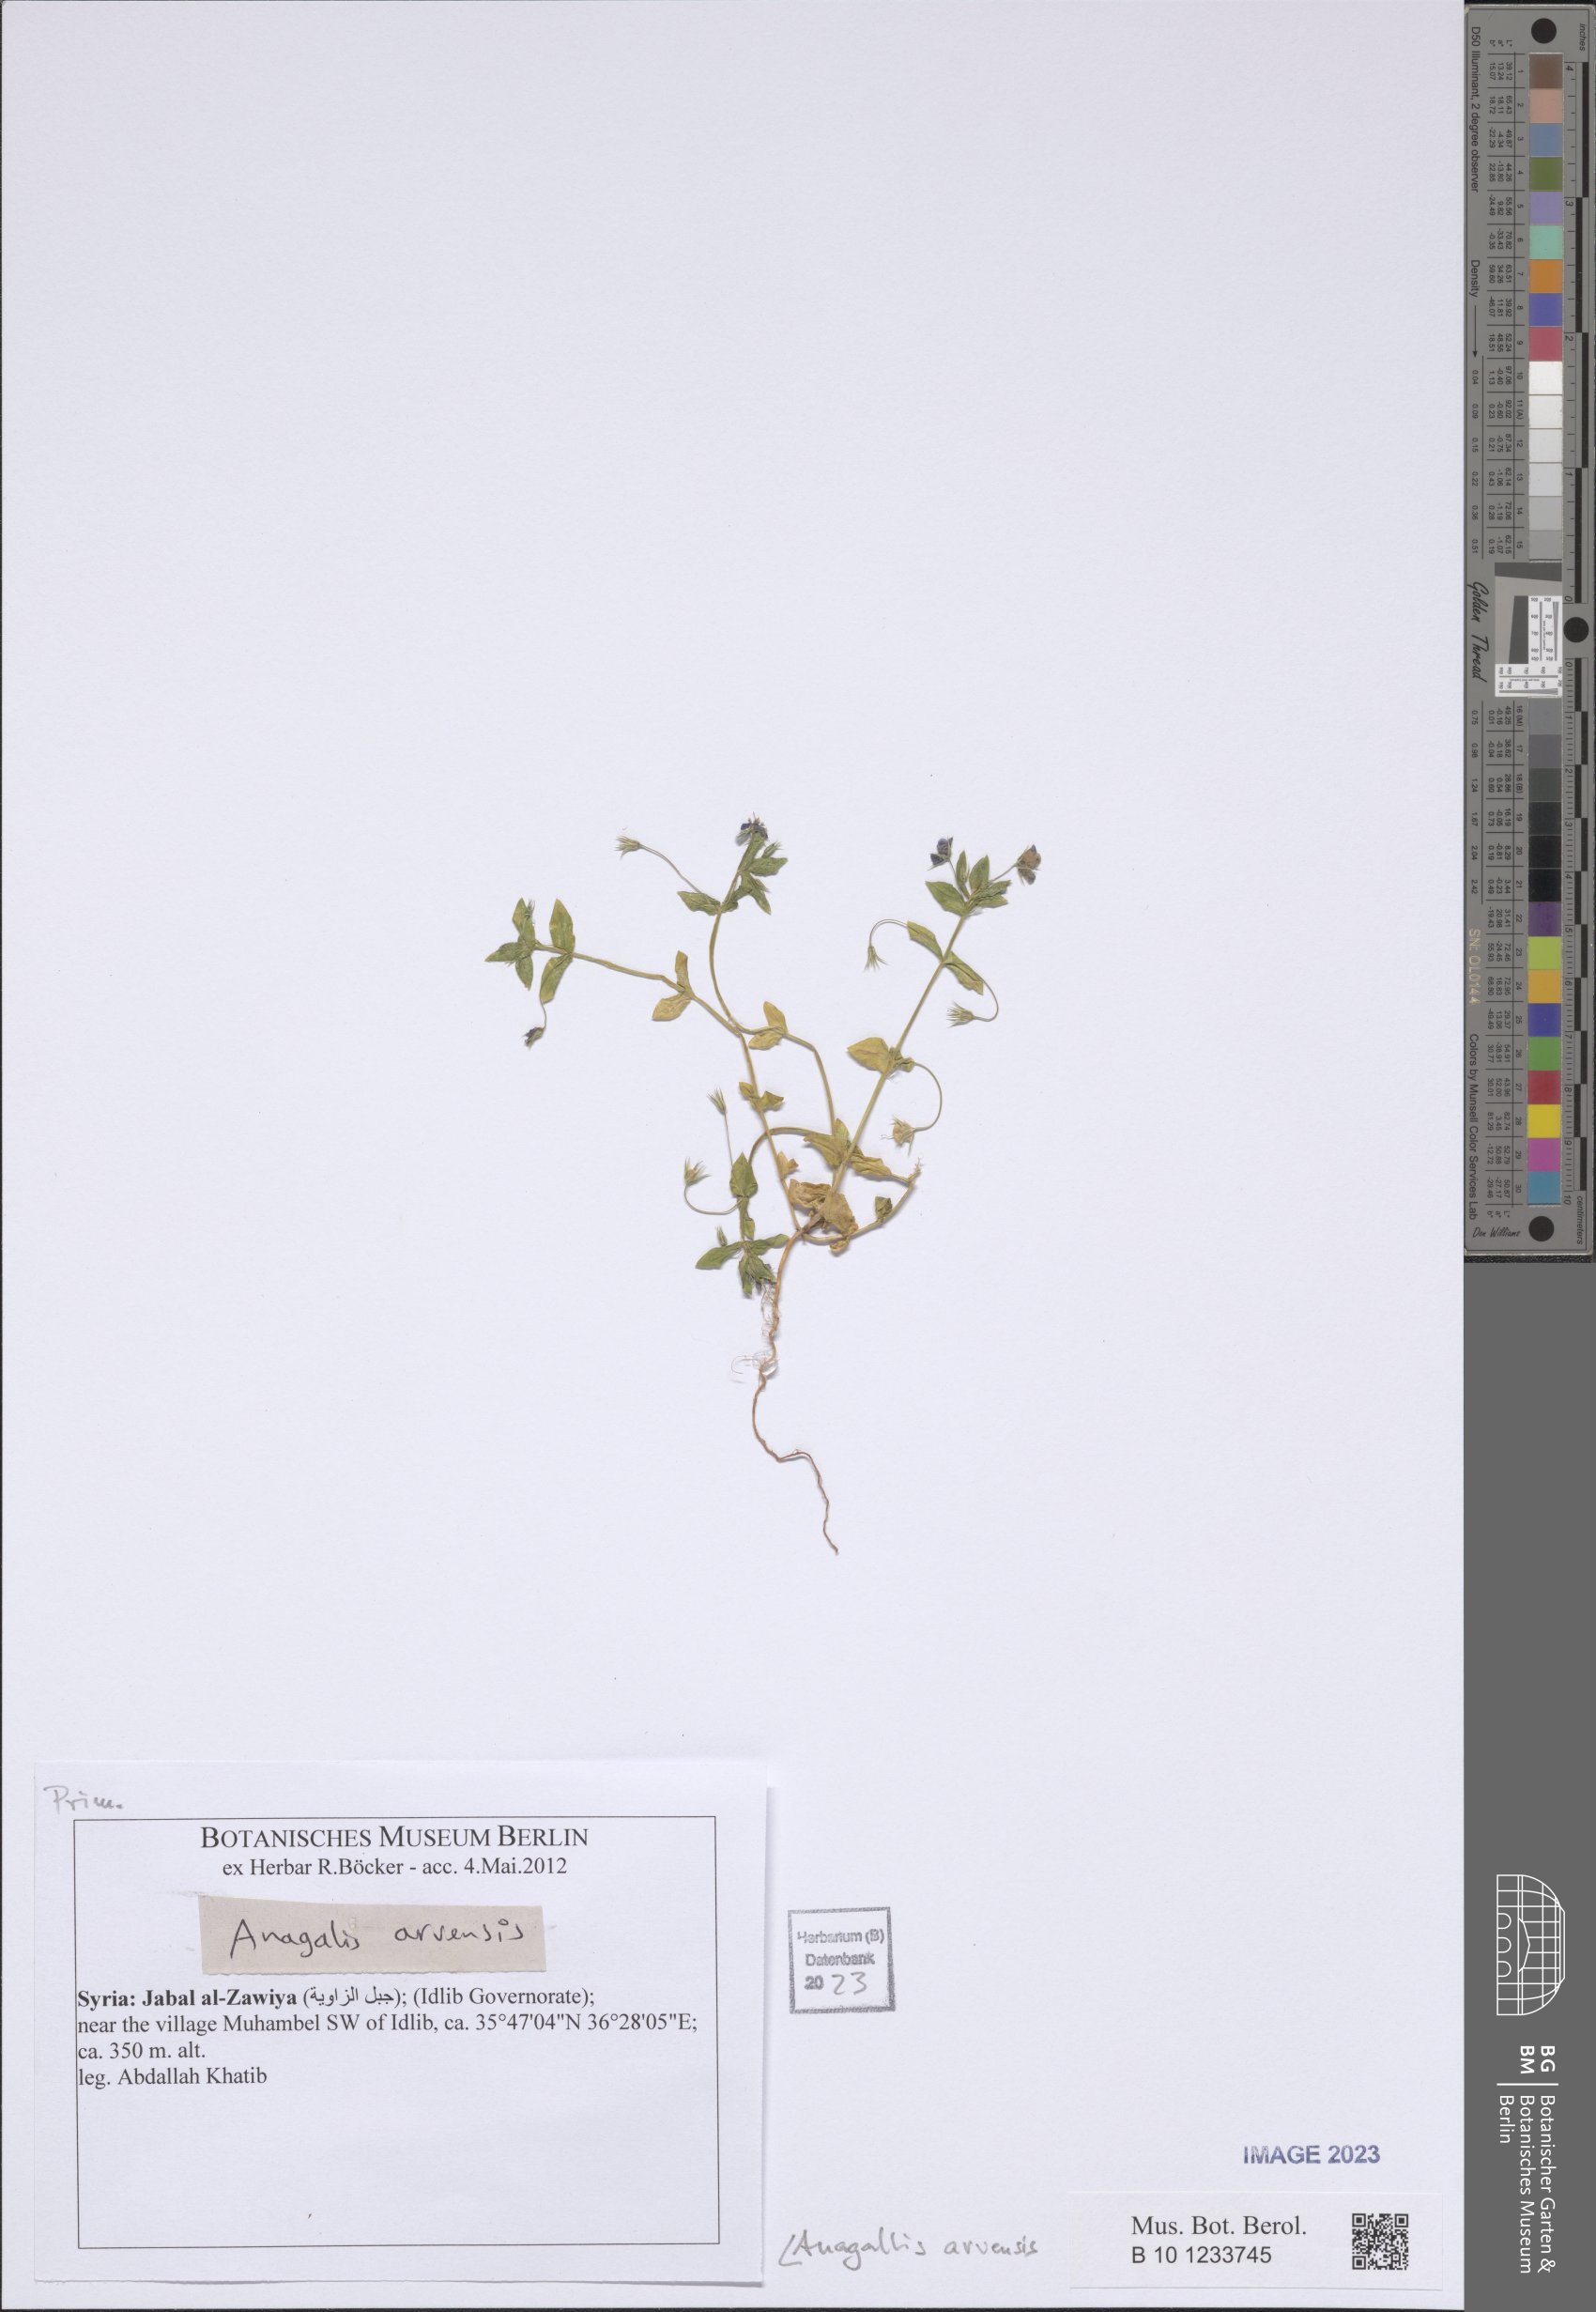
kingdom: Plantae
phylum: Tracheophyta
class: Magnoliopsida
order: Ericales
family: Primulaceae
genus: Lysimachia
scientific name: Lysimachia arvensis
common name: Scarlet pimpernel
